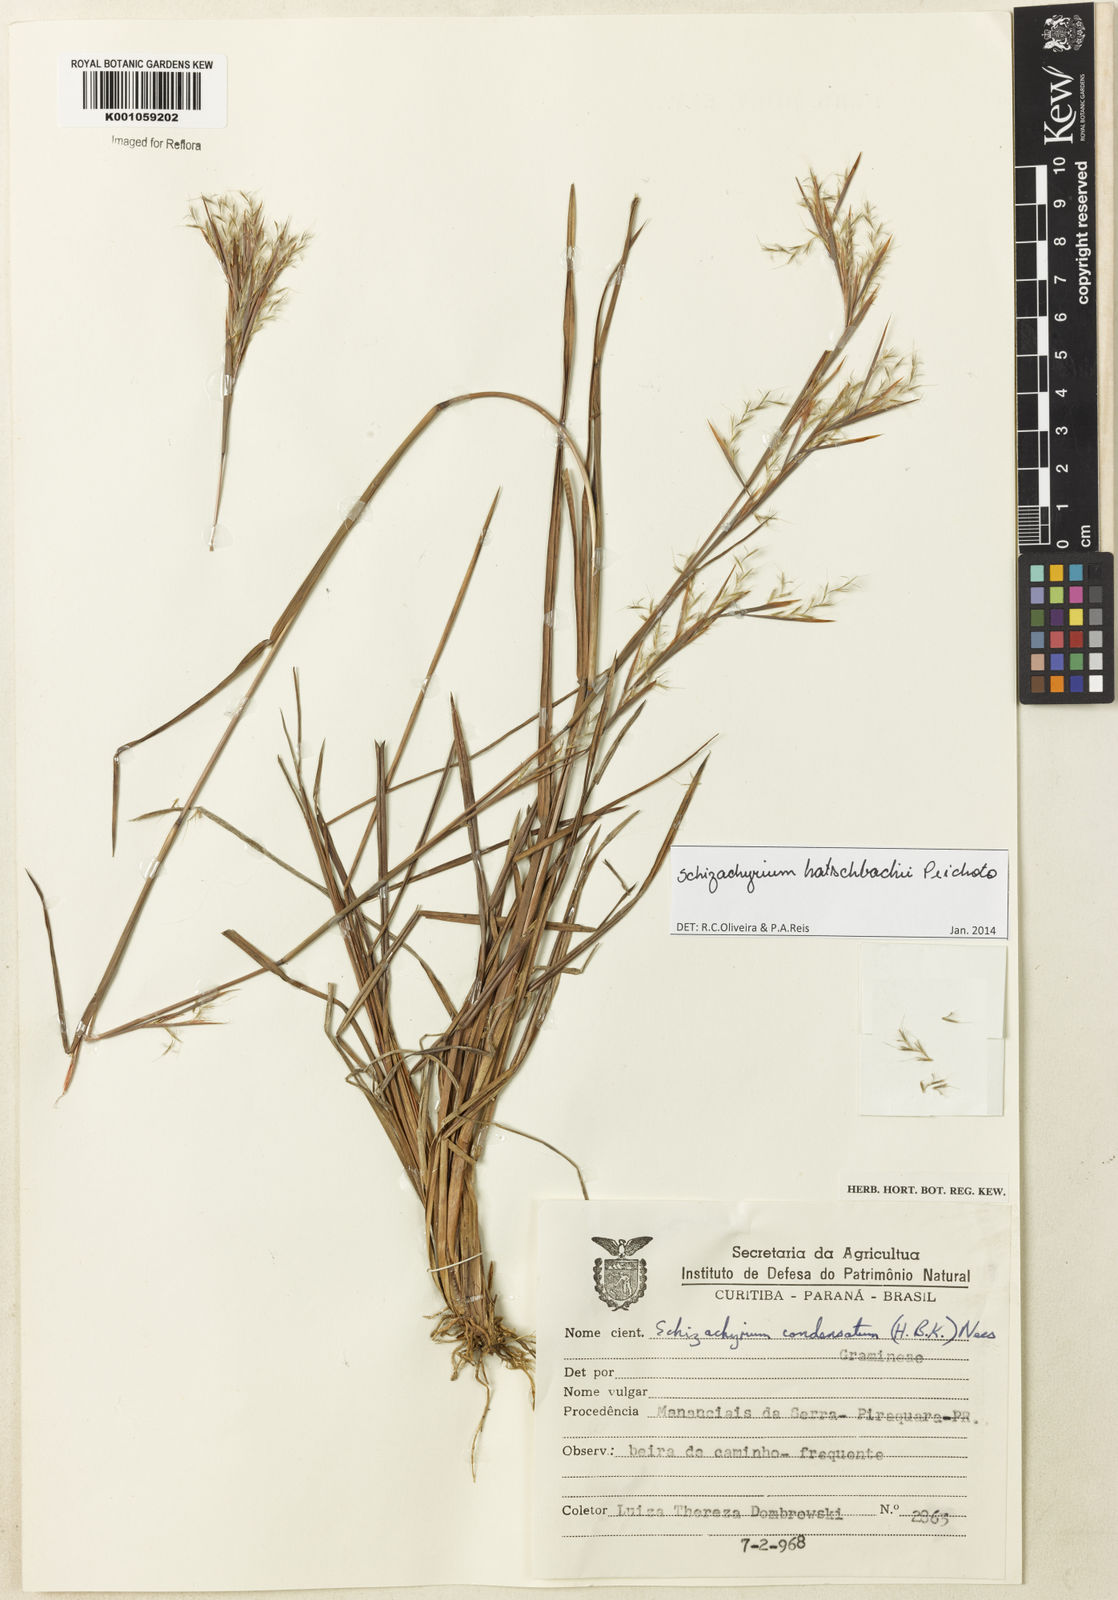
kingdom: Plantae
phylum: Tracheophyta
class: Liliopsida
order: Poales
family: Poaceae
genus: Schizachyrium
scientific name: Schizachyrium hatschbachii
